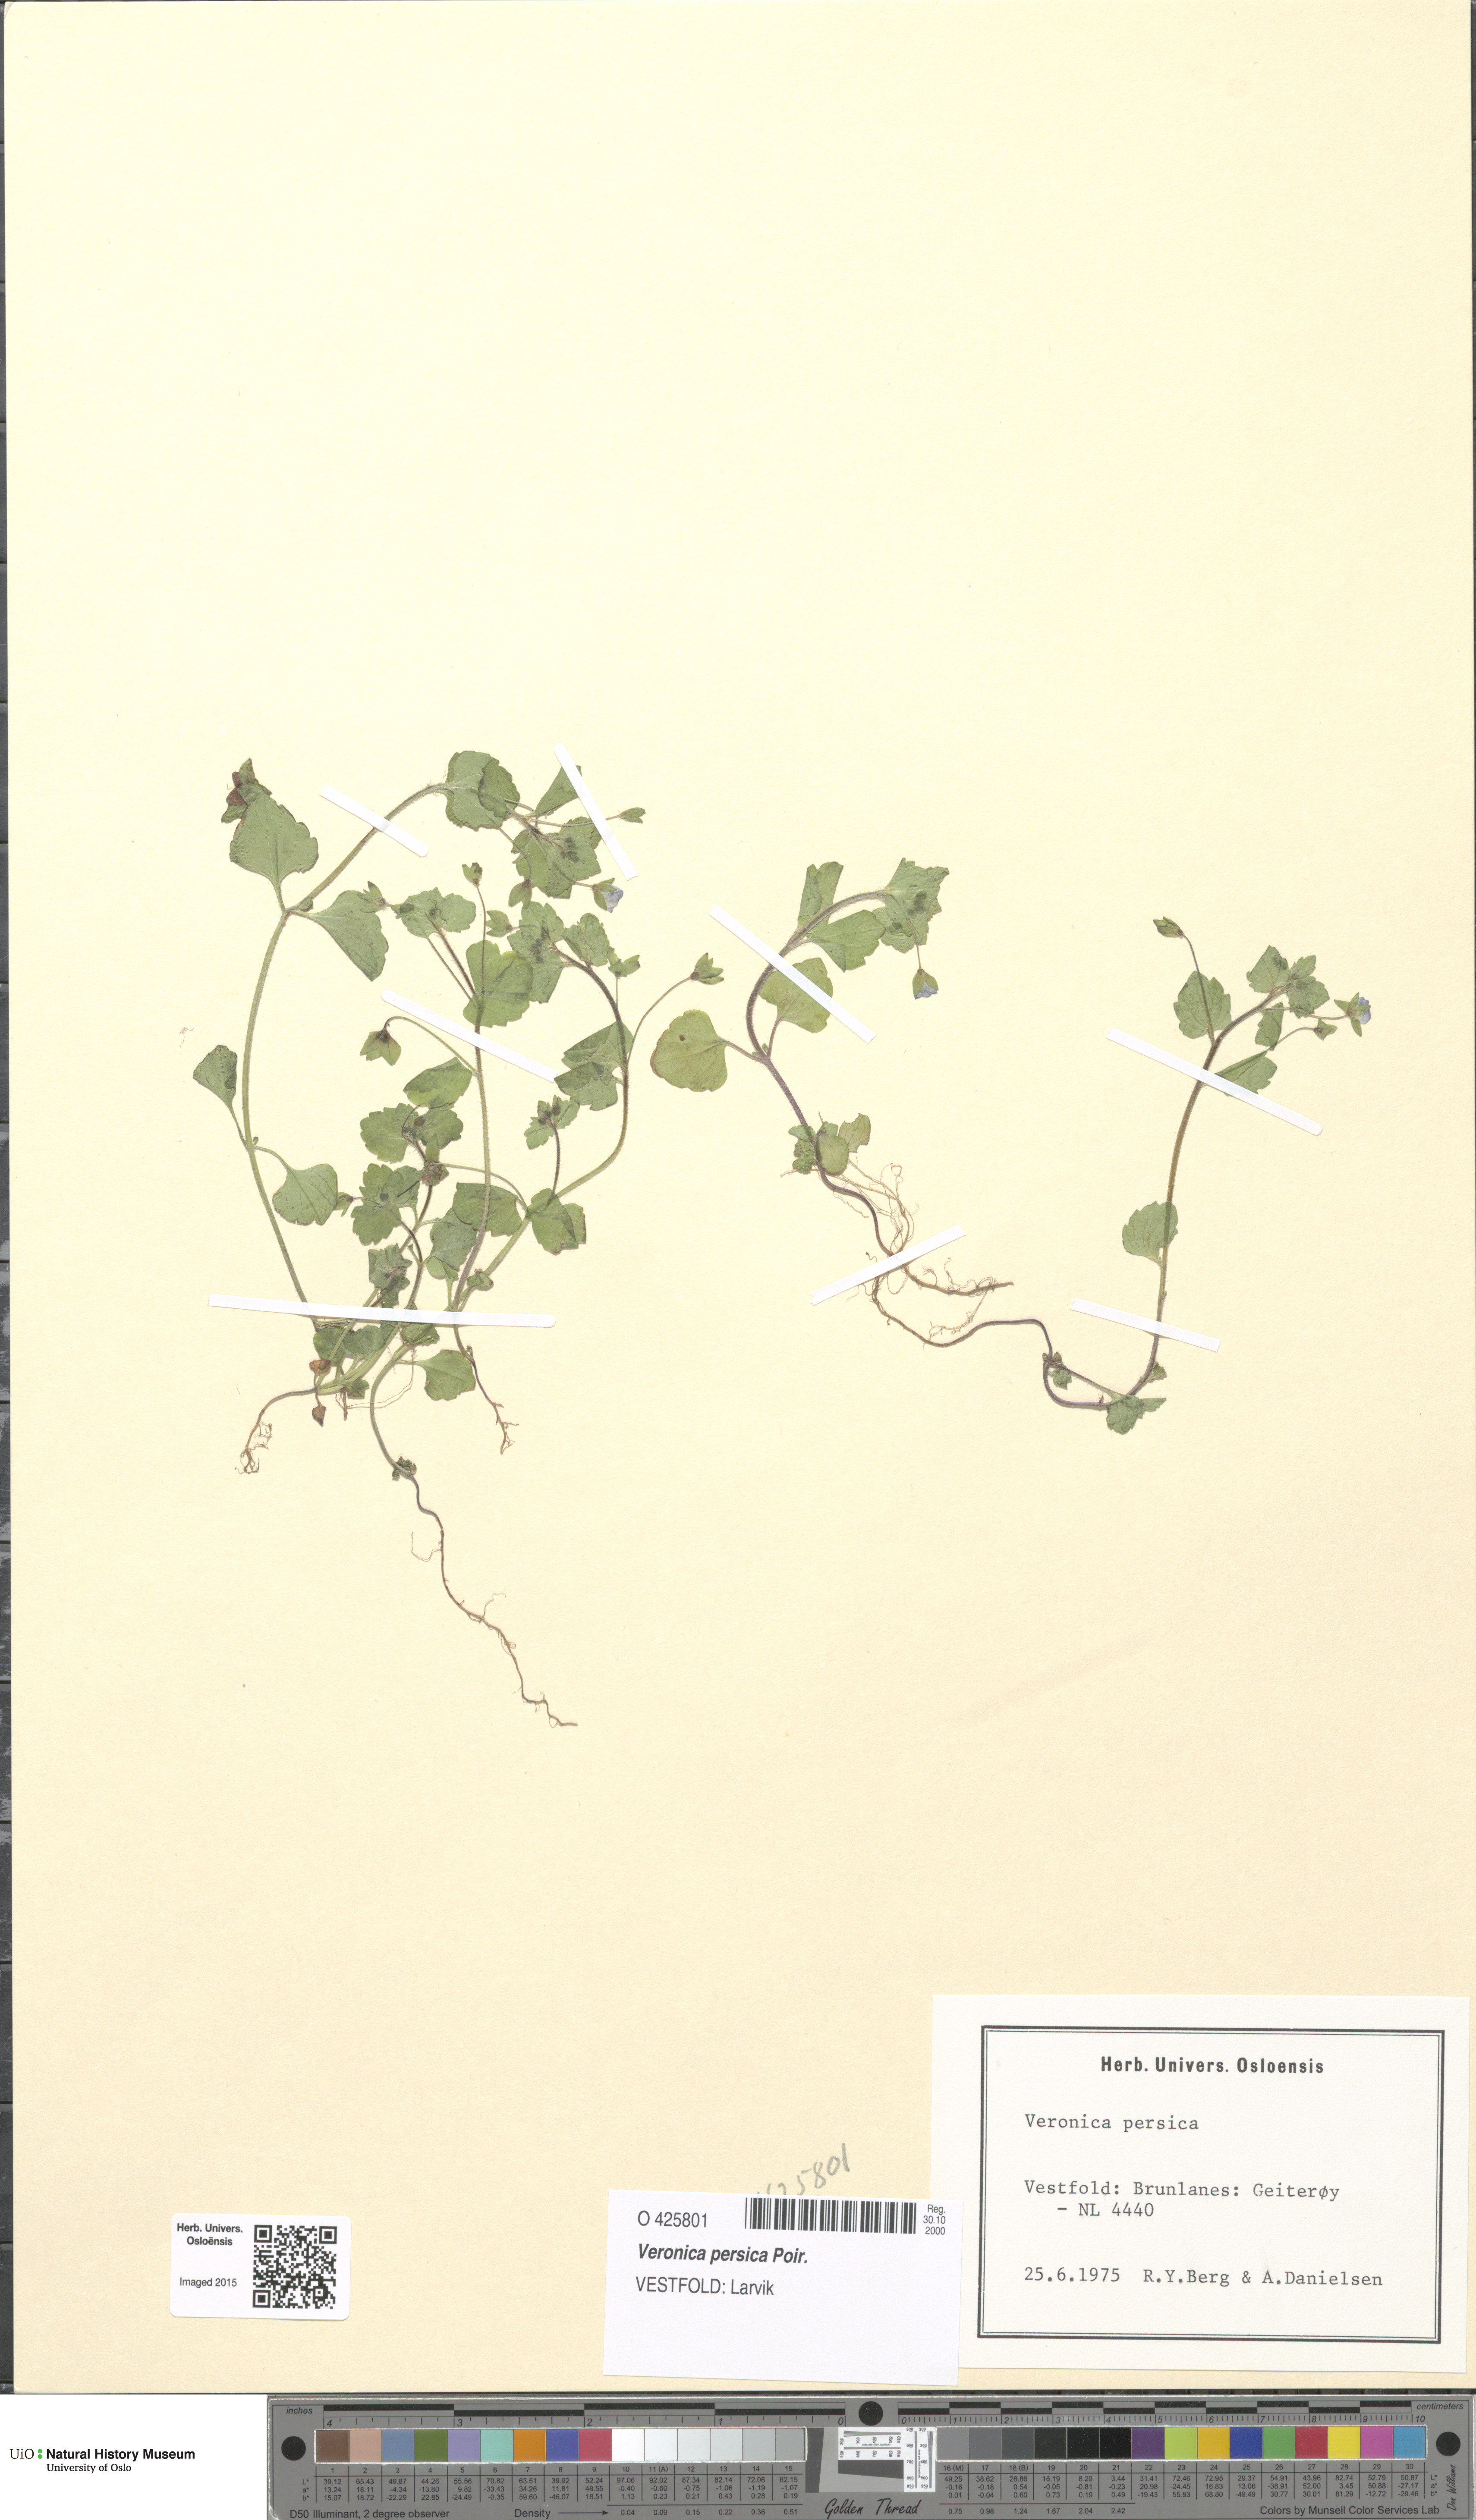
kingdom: Plantae
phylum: Tracheophyta
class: Magnoliopsida
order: Lamiales
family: Plantaginaceae
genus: Veronica
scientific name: Veronica persica
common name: Common field-speedwell
